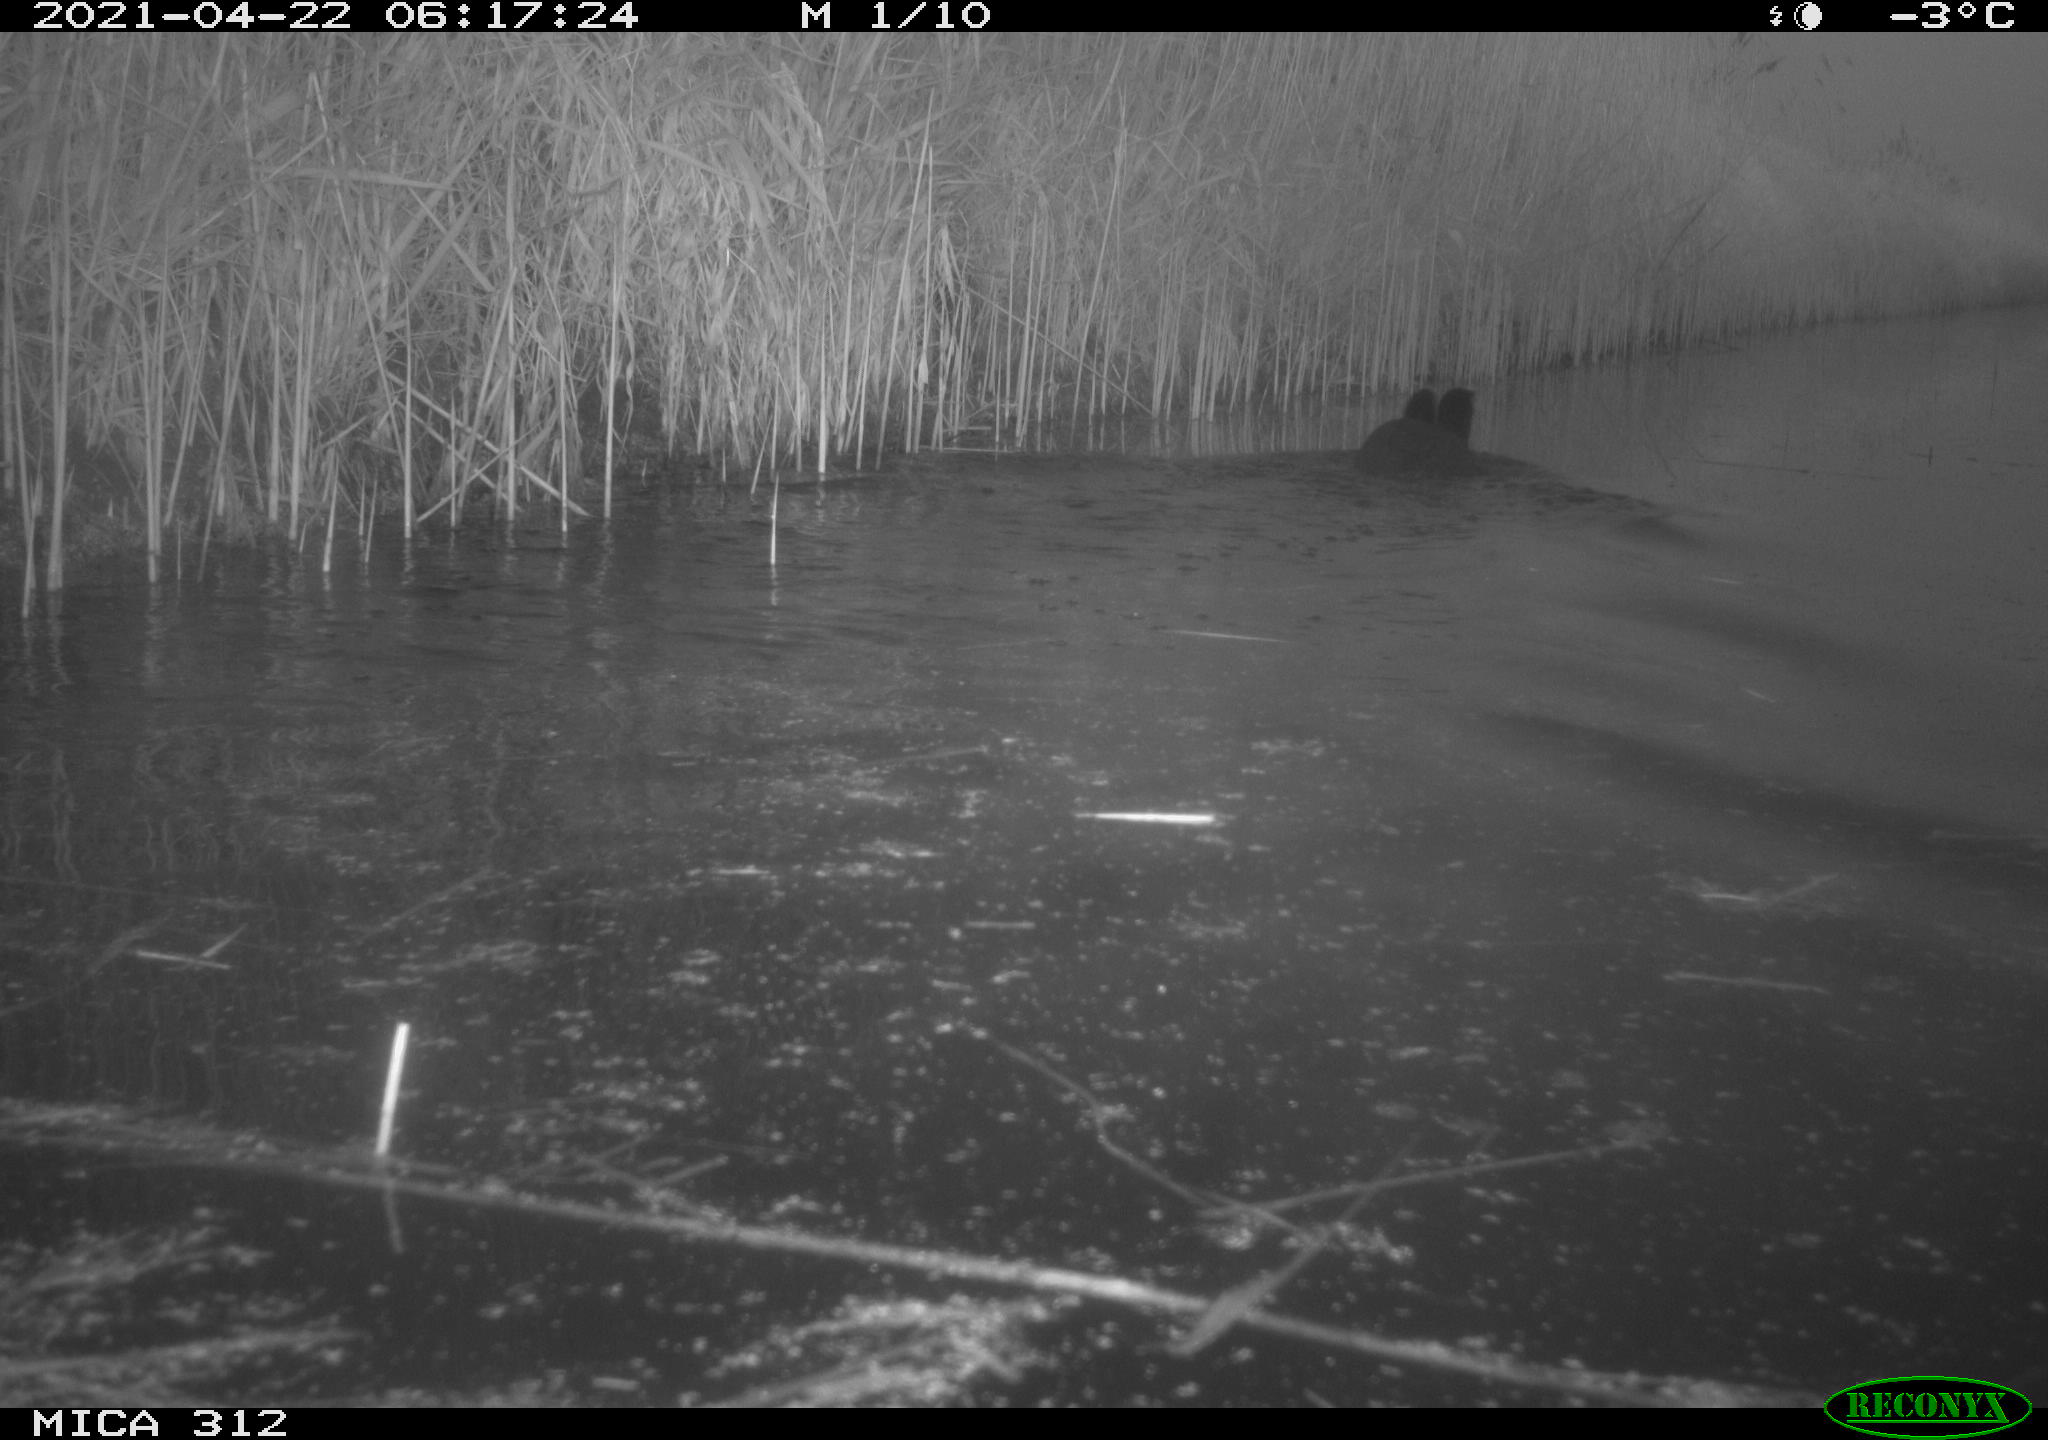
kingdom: Animalia
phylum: Chordata
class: Aves
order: Gruiformes
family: Rallidae
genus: Fulica
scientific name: Fulica atra
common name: Eurasian coot
